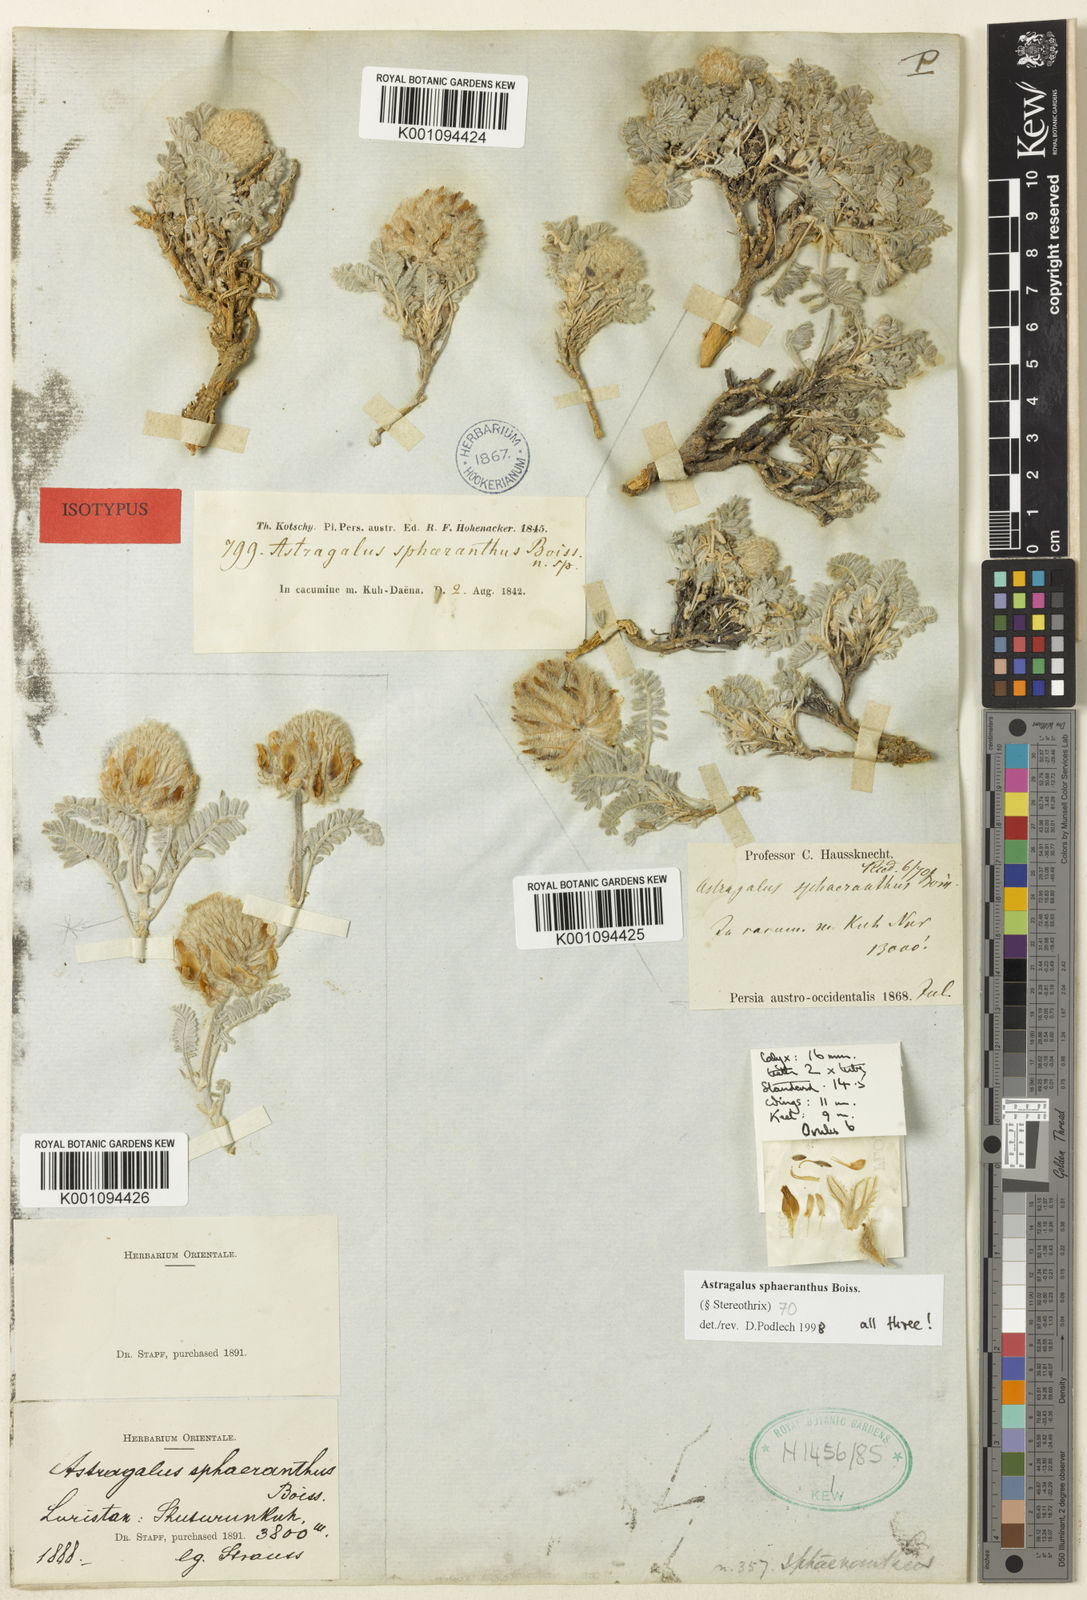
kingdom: Plantae
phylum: Tracheophyta
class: Magnoliopsida
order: Fabales
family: Fabaceae
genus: Astragalus
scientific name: Astragalus
